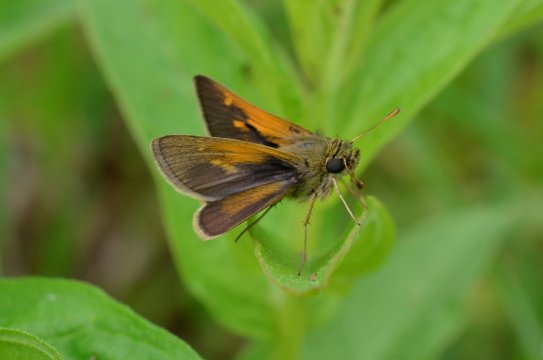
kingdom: Animalia
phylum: Arthropoda
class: Insecta
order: Lepidoptera
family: Hesperiidae
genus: Polites
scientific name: Polites themistocles
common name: Tawny-edged Skipper
